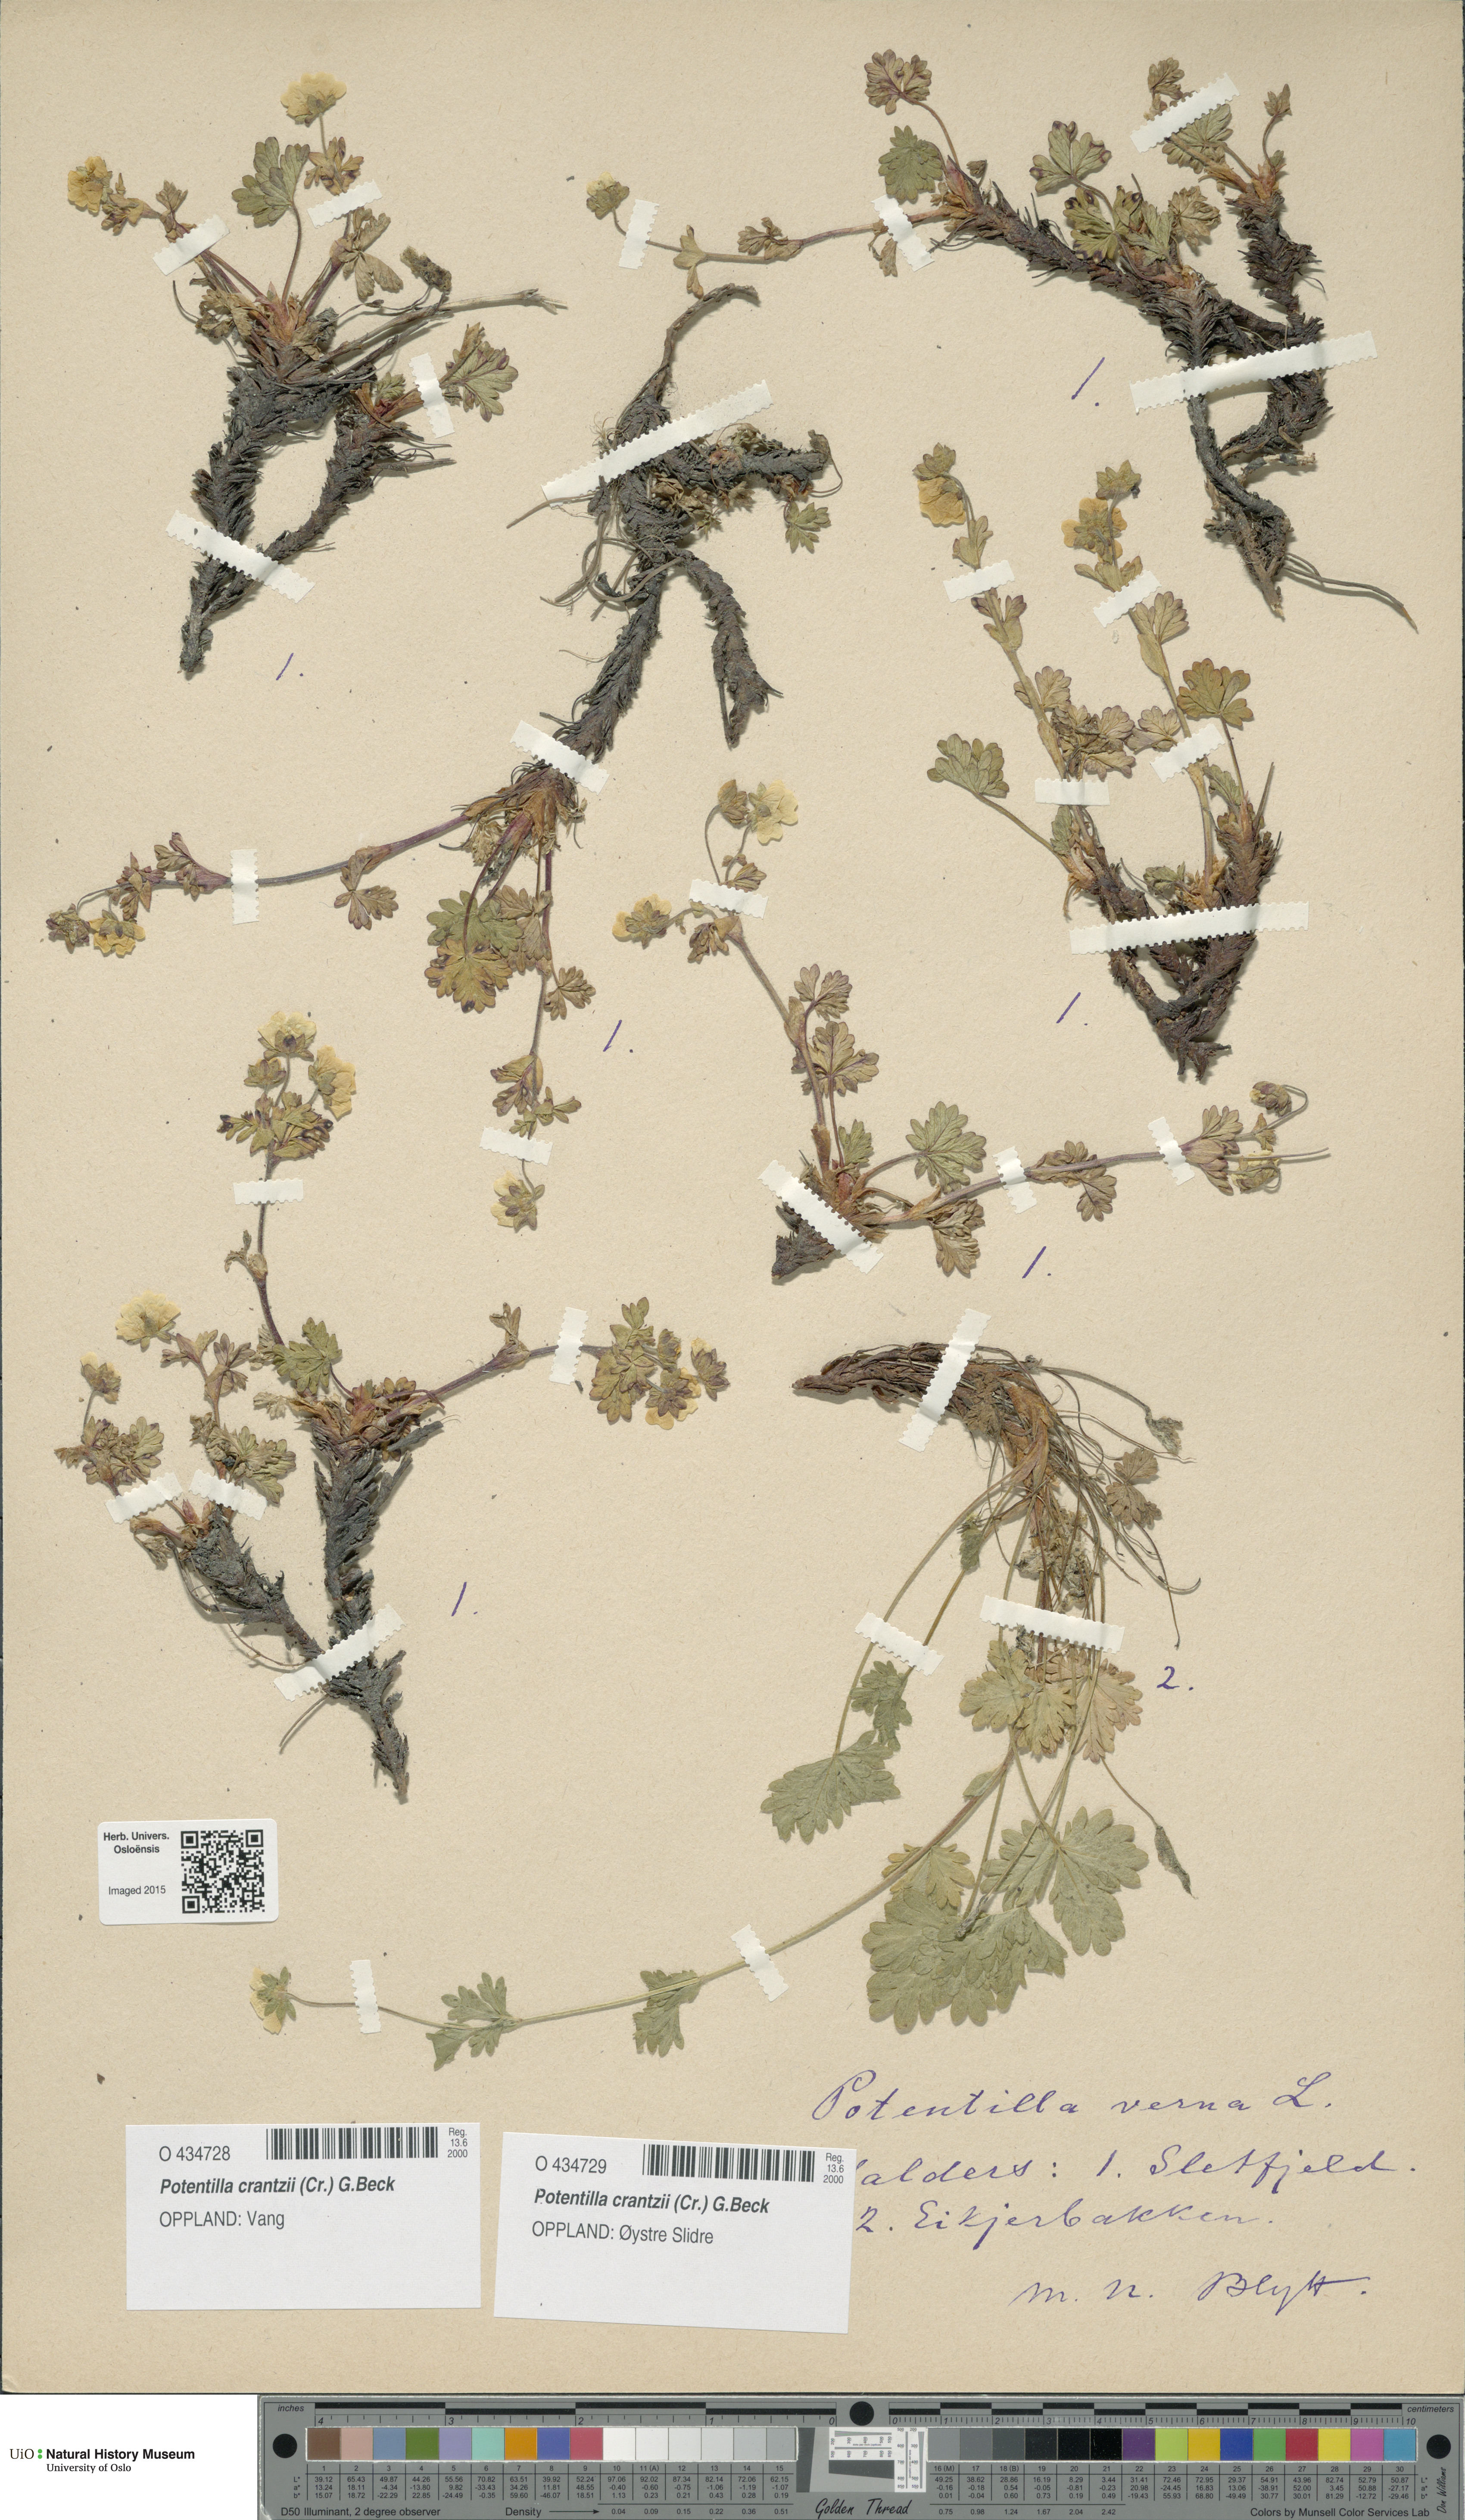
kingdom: Plantae
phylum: Tracheophyta
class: Magnoliopsida
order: Rosales
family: Rosaceae
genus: Potentilla
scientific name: Potentilla verna
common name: Spring cinquefoil
